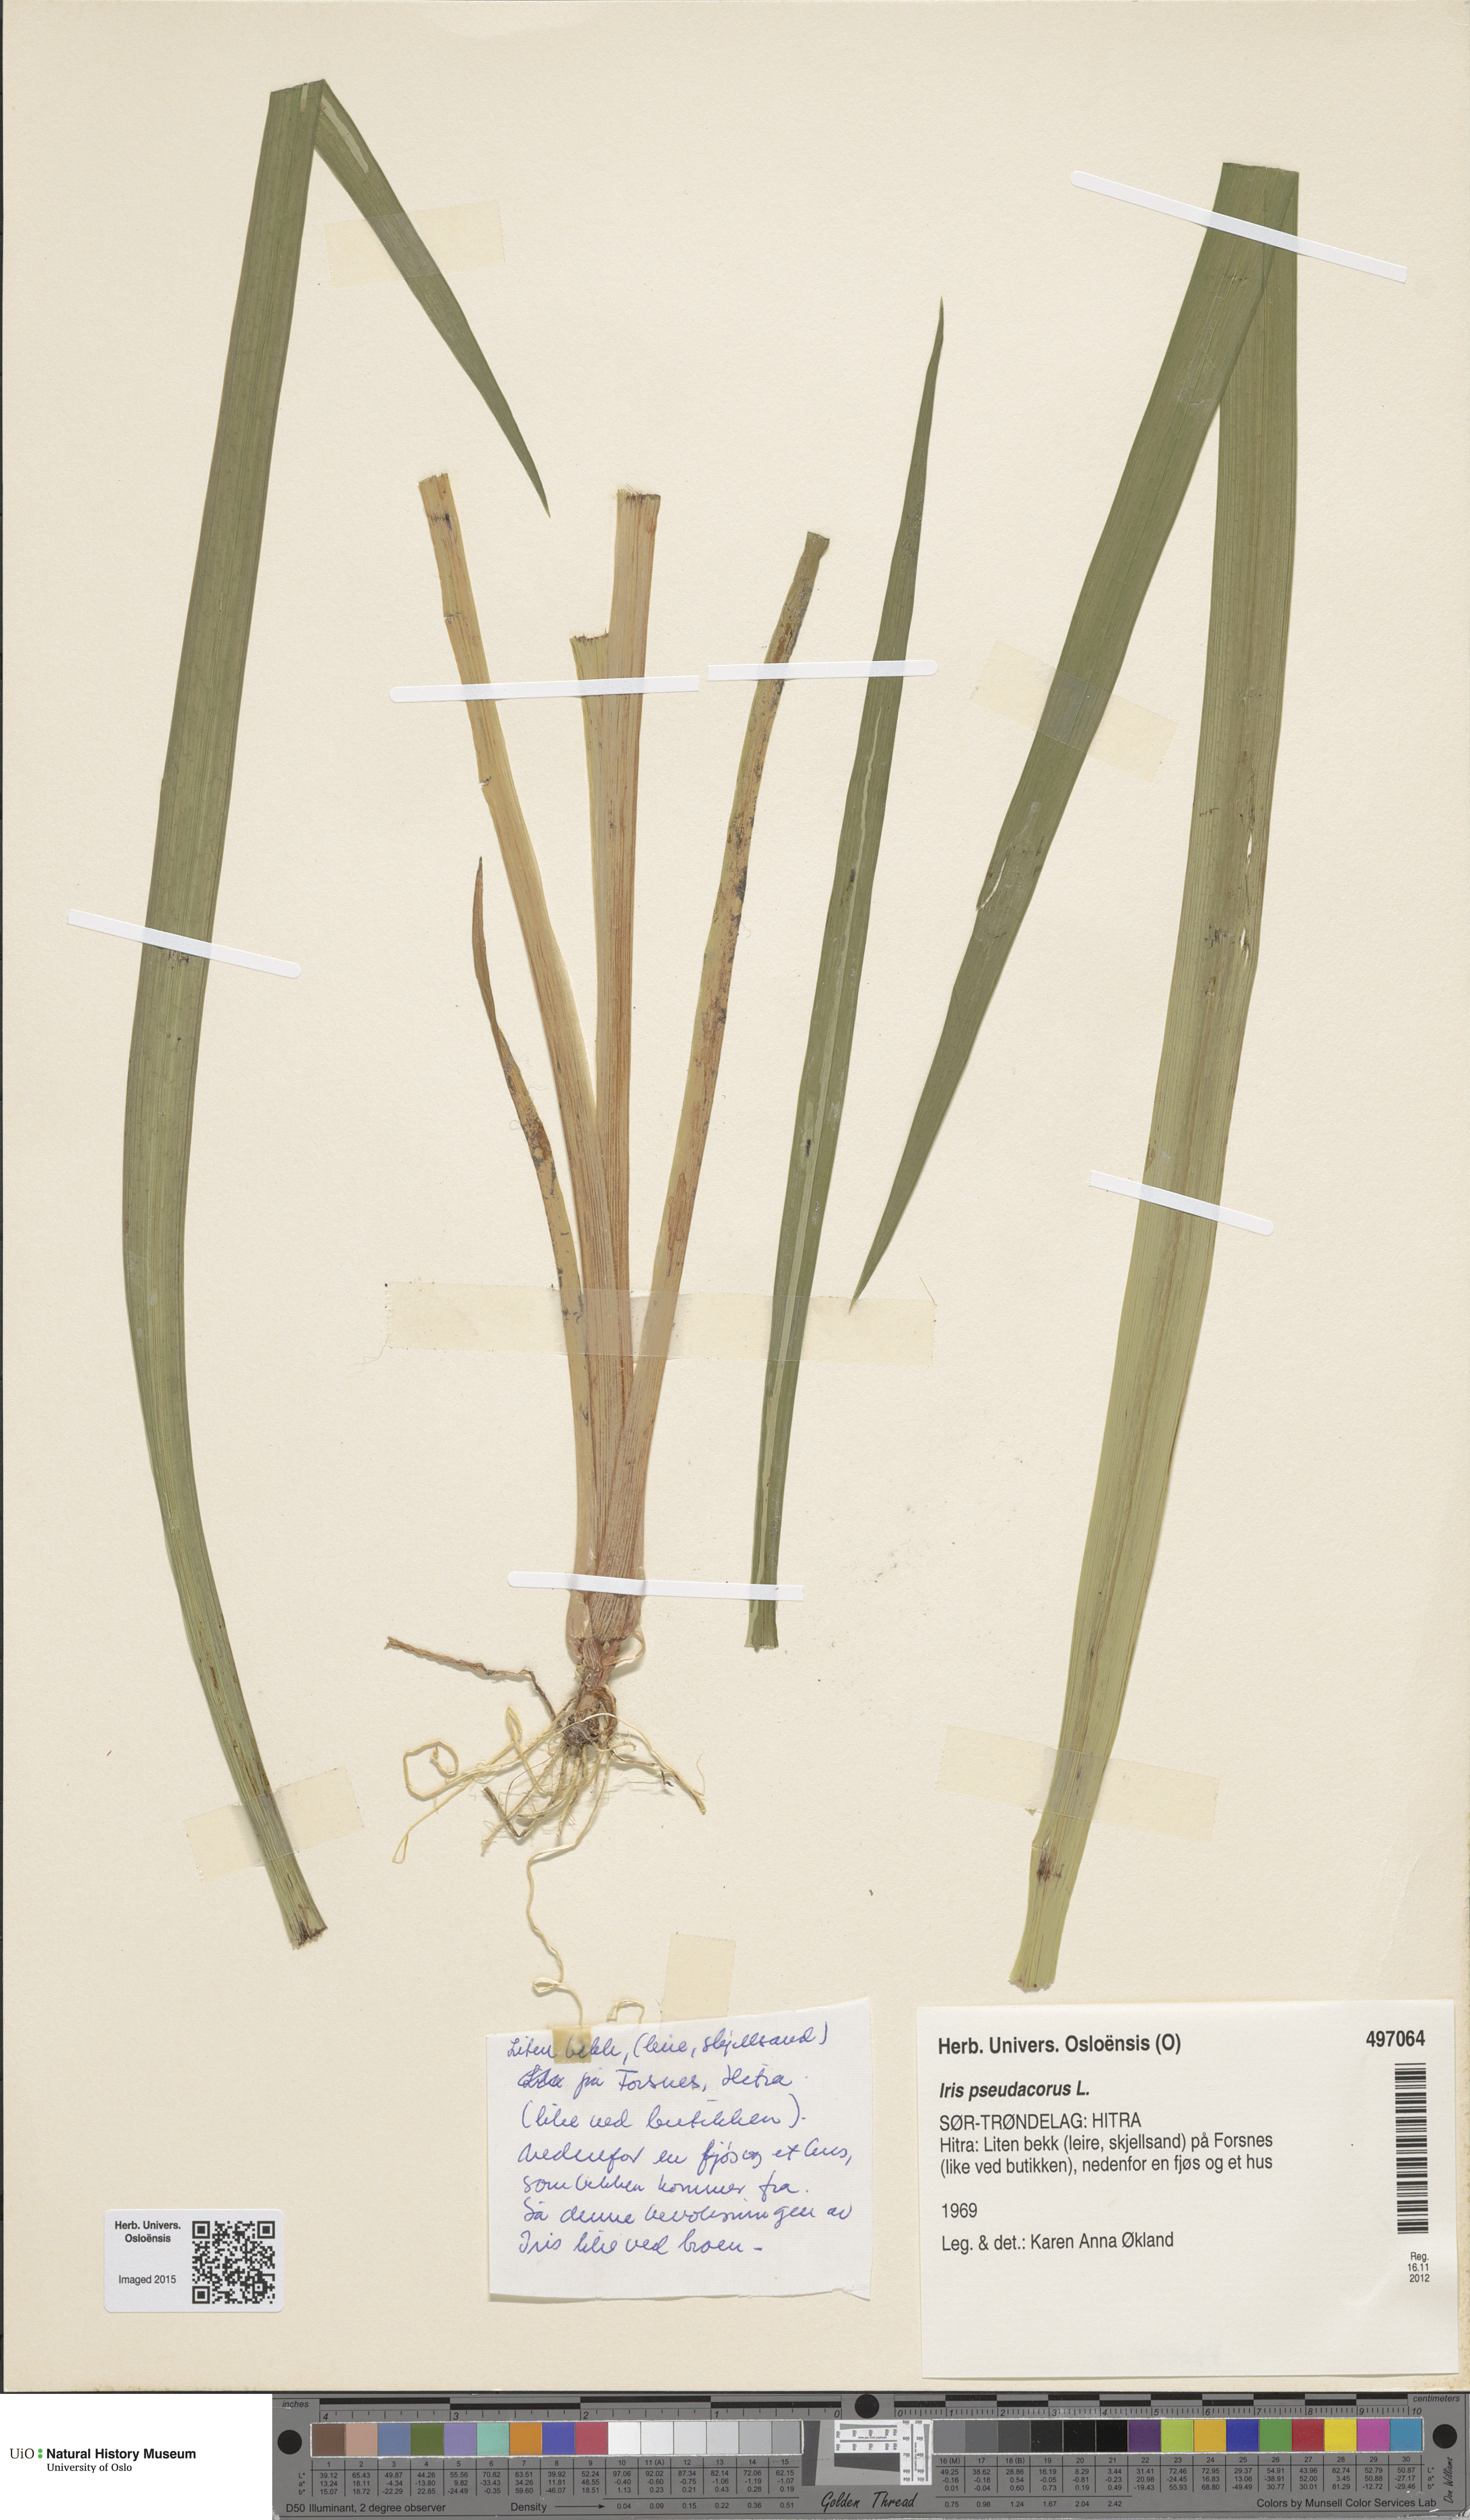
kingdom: Plantae
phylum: Tracheophyta
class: Liliopsida
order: Asparagales
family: Iridaceae
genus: Iris
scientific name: Iris pseudacorus
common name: Yellow flag
